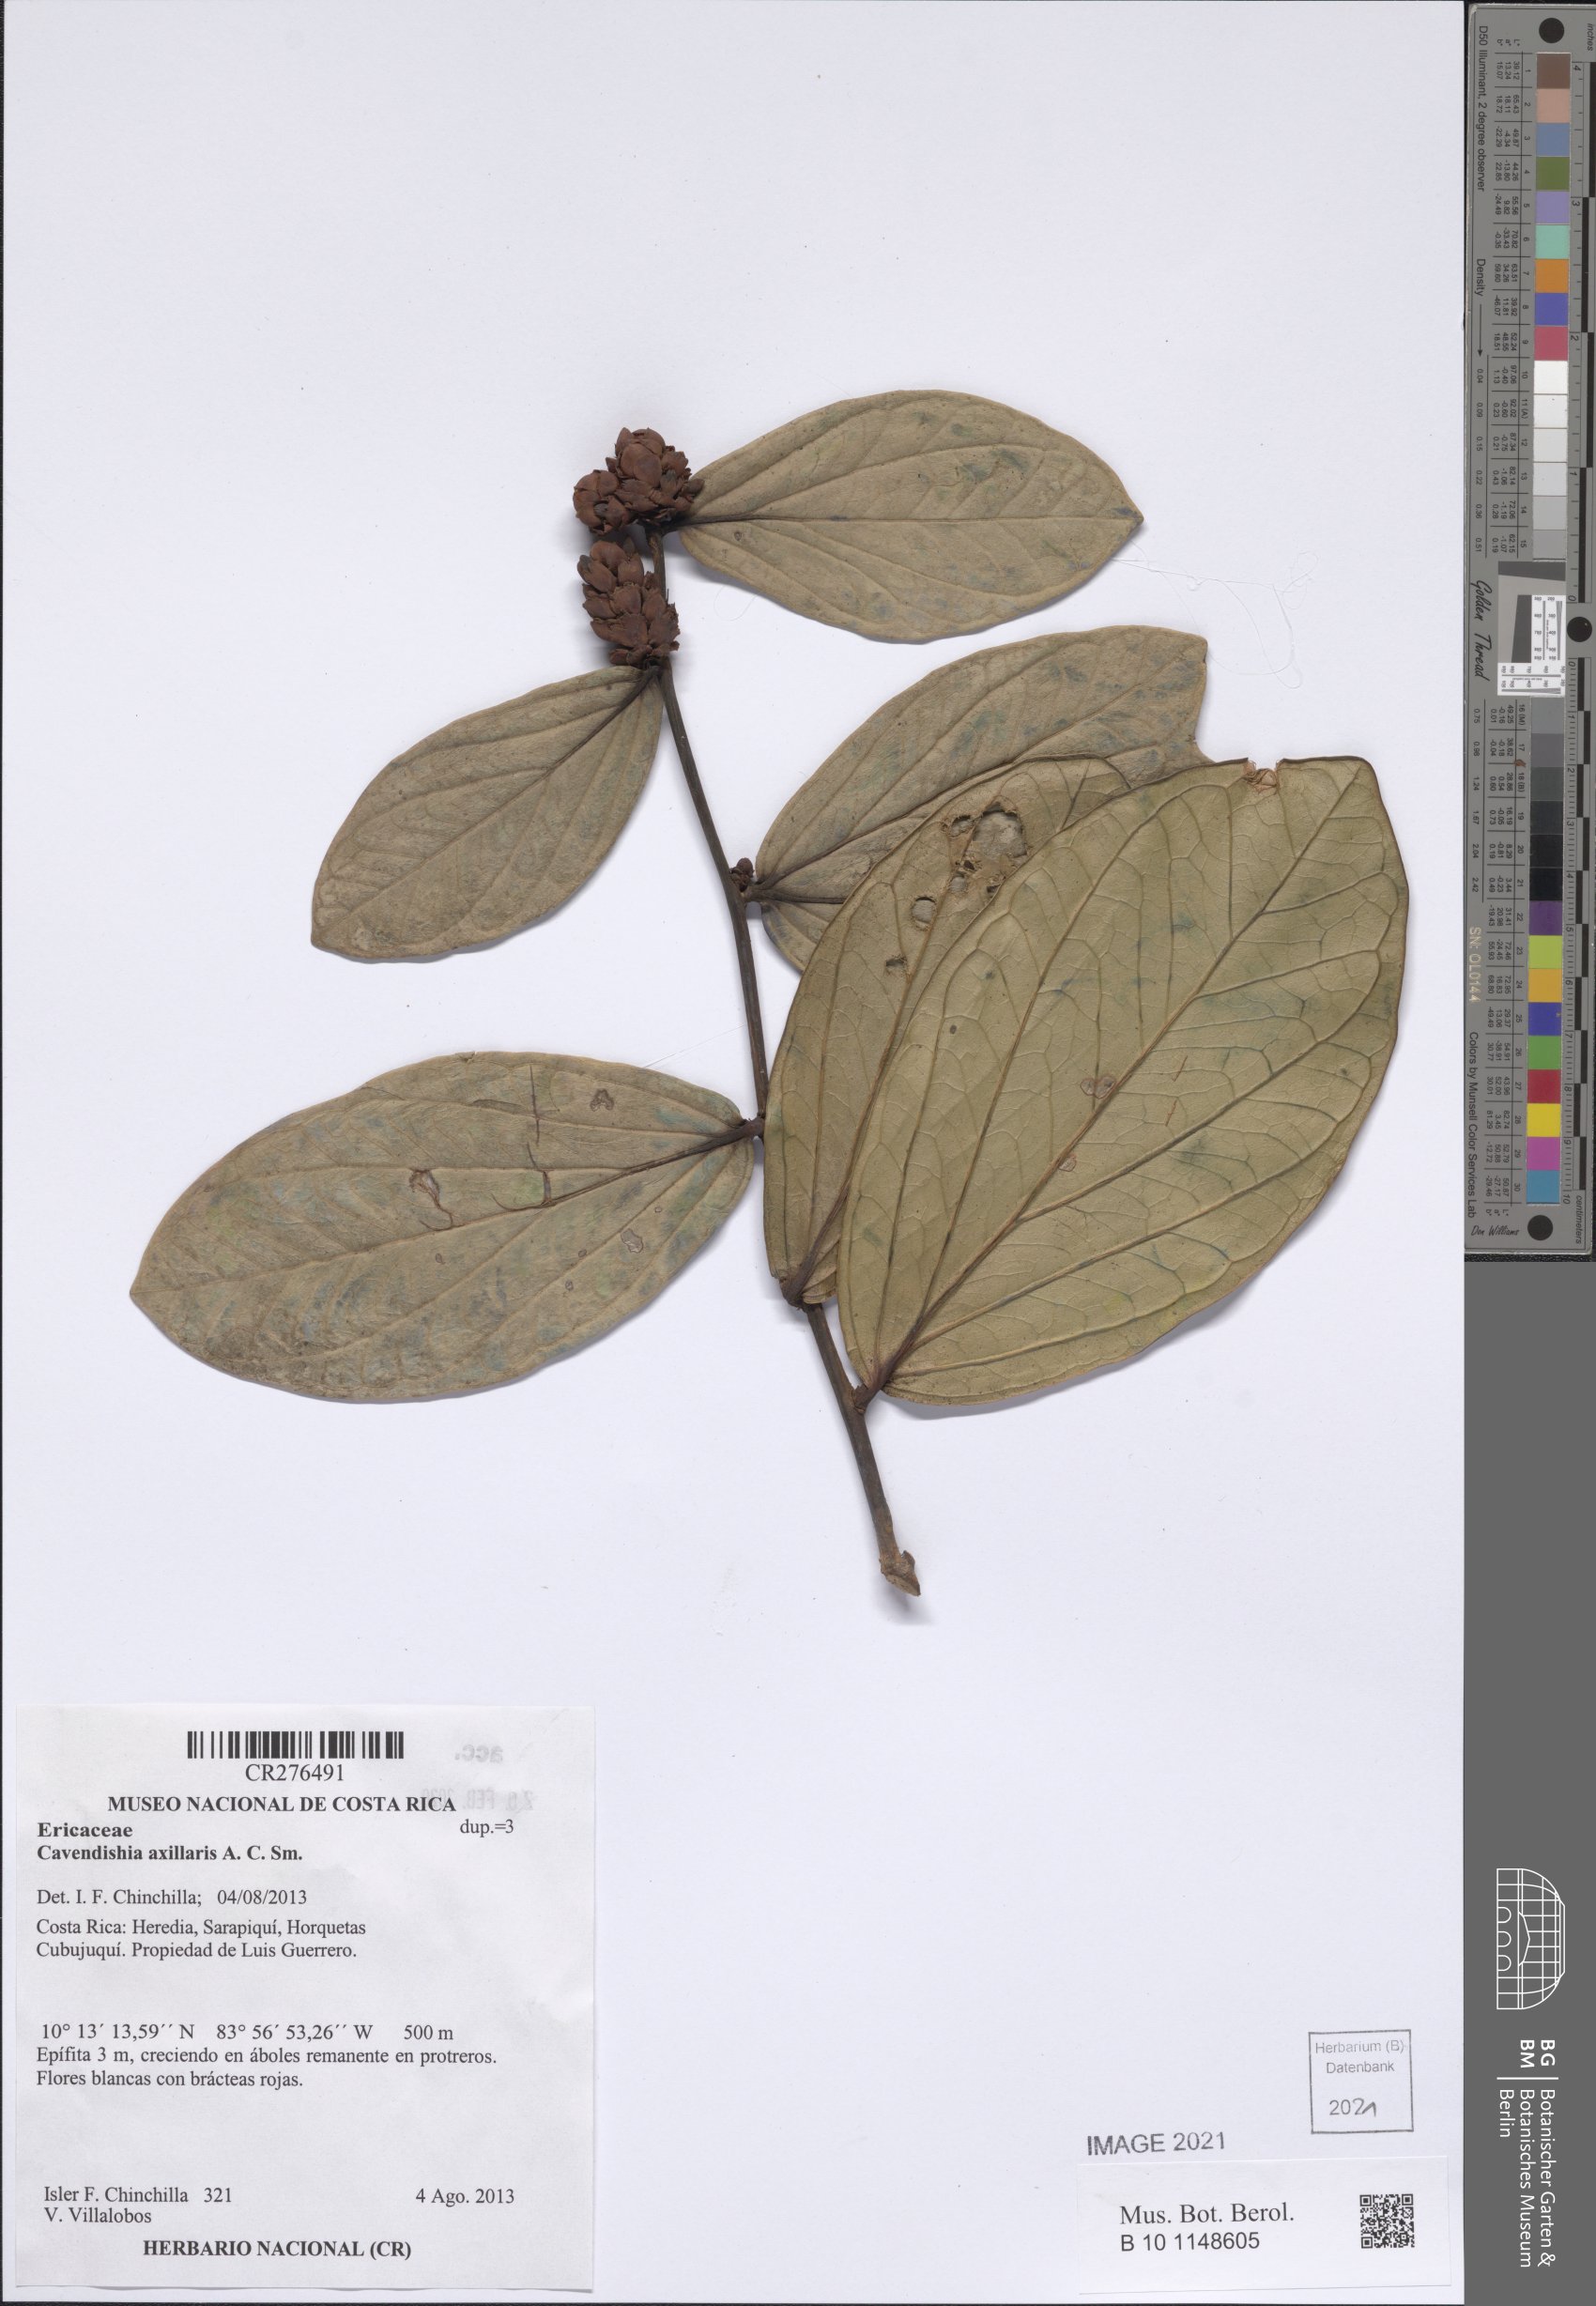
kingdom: Plantae
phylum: Tracheophyta
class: Magnoliopsida
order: Ericales
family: Ericaceae
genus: Cavendishia
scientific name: Cavendishia axillaris
